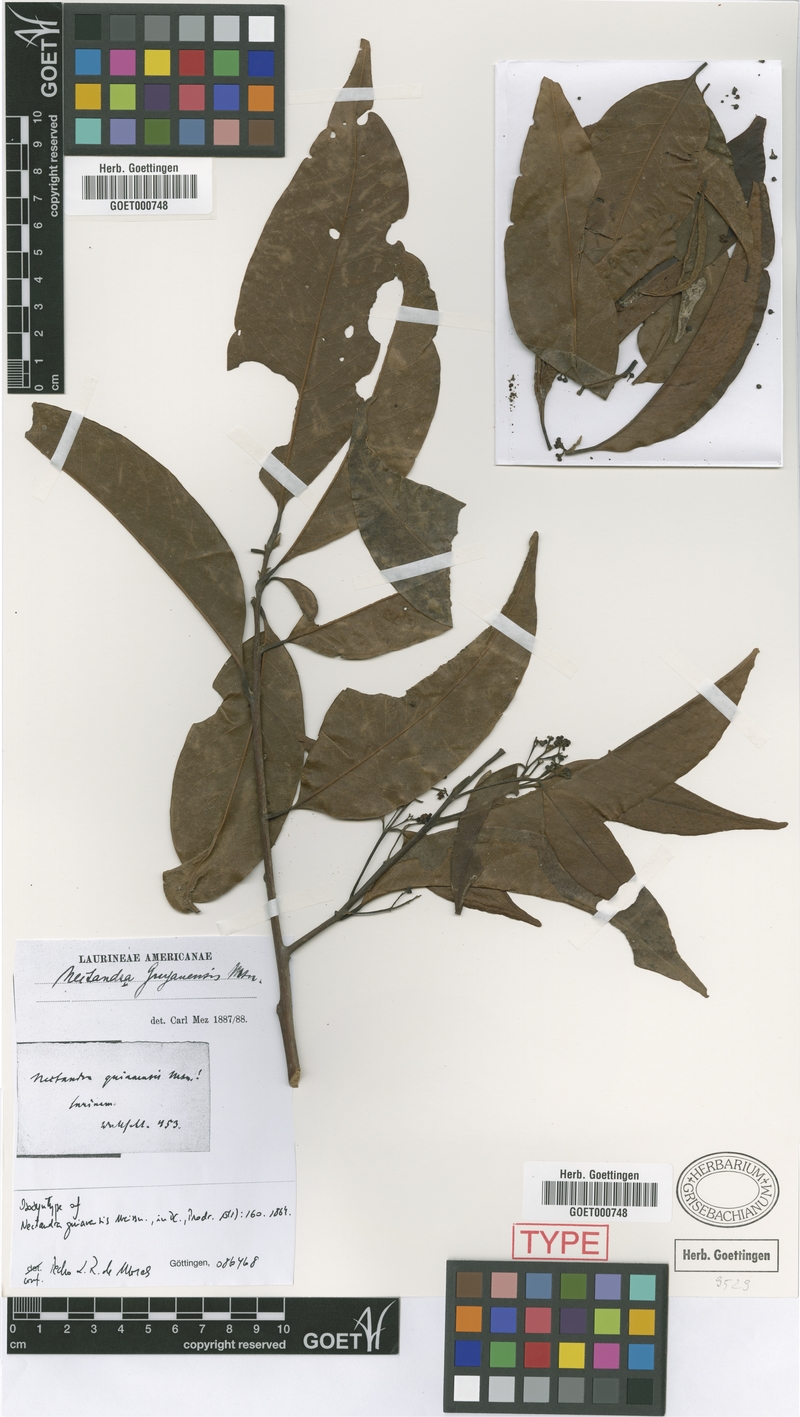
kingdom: Plantae
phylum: Tracheophyta
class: Magnoliopsida
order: Laurales
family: Lauraceae
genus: Nectandra
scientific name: Nectandra sanguinea
